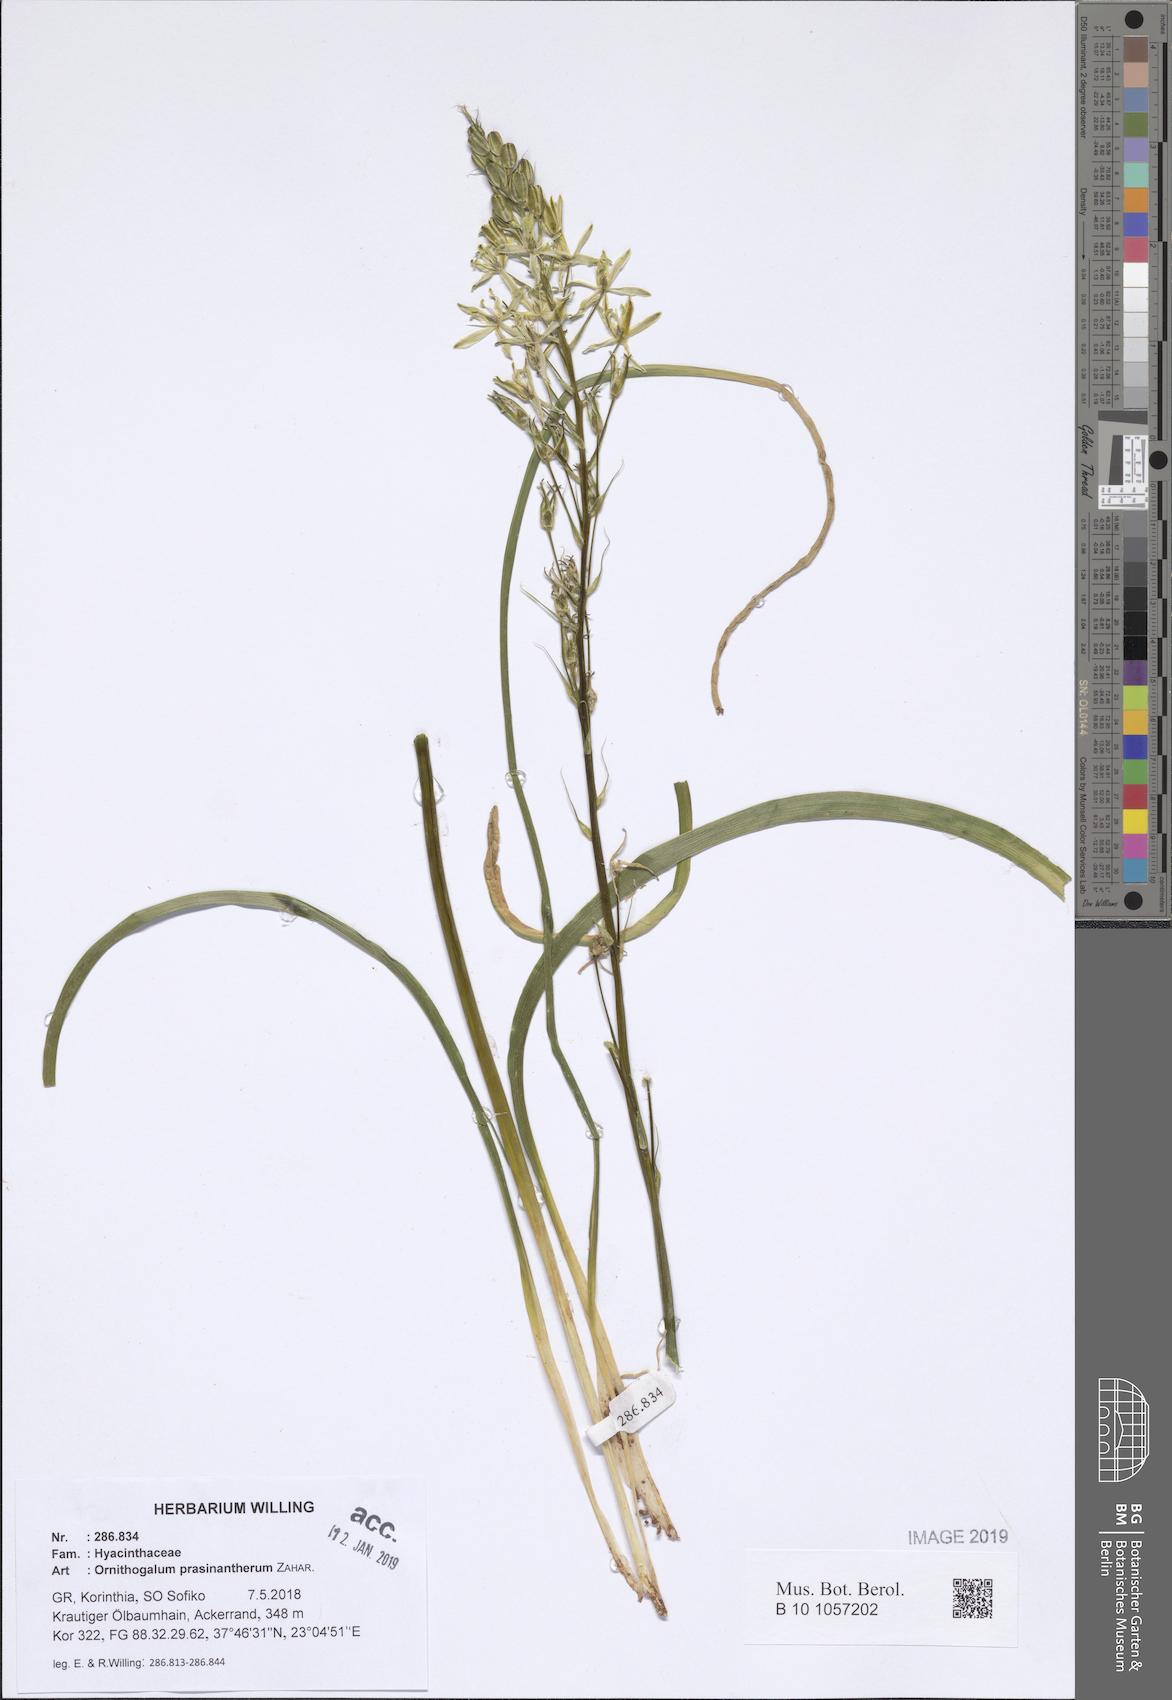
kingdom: Plantae
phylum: Tracheophyta
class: Liliopsida
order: Asparagales
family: Asparagaceae
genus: Ornithogalum
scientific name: Ornithogalum prasinantherum
